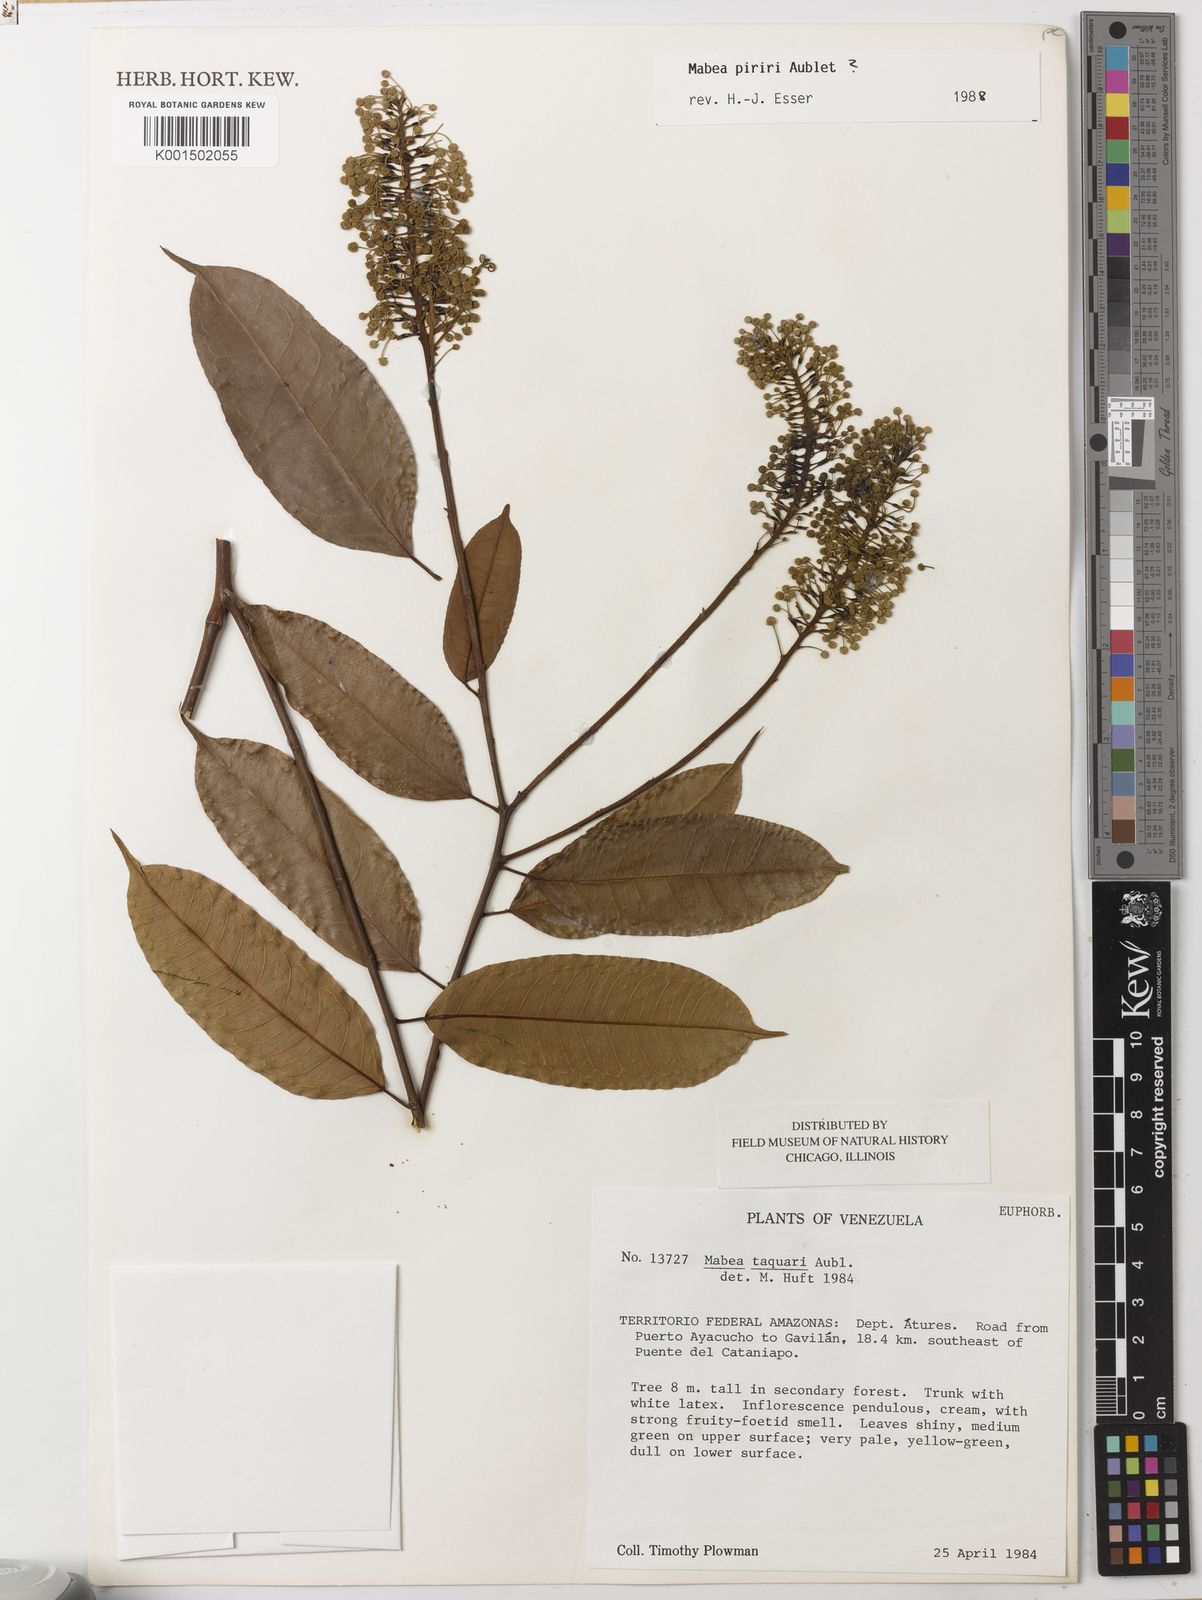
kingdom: Plantae
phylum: Tracheophyta
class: Magnoliopsida
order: Malpighiales
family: Euphorbiaceae
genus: Mabea
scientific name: Mabea piriri
